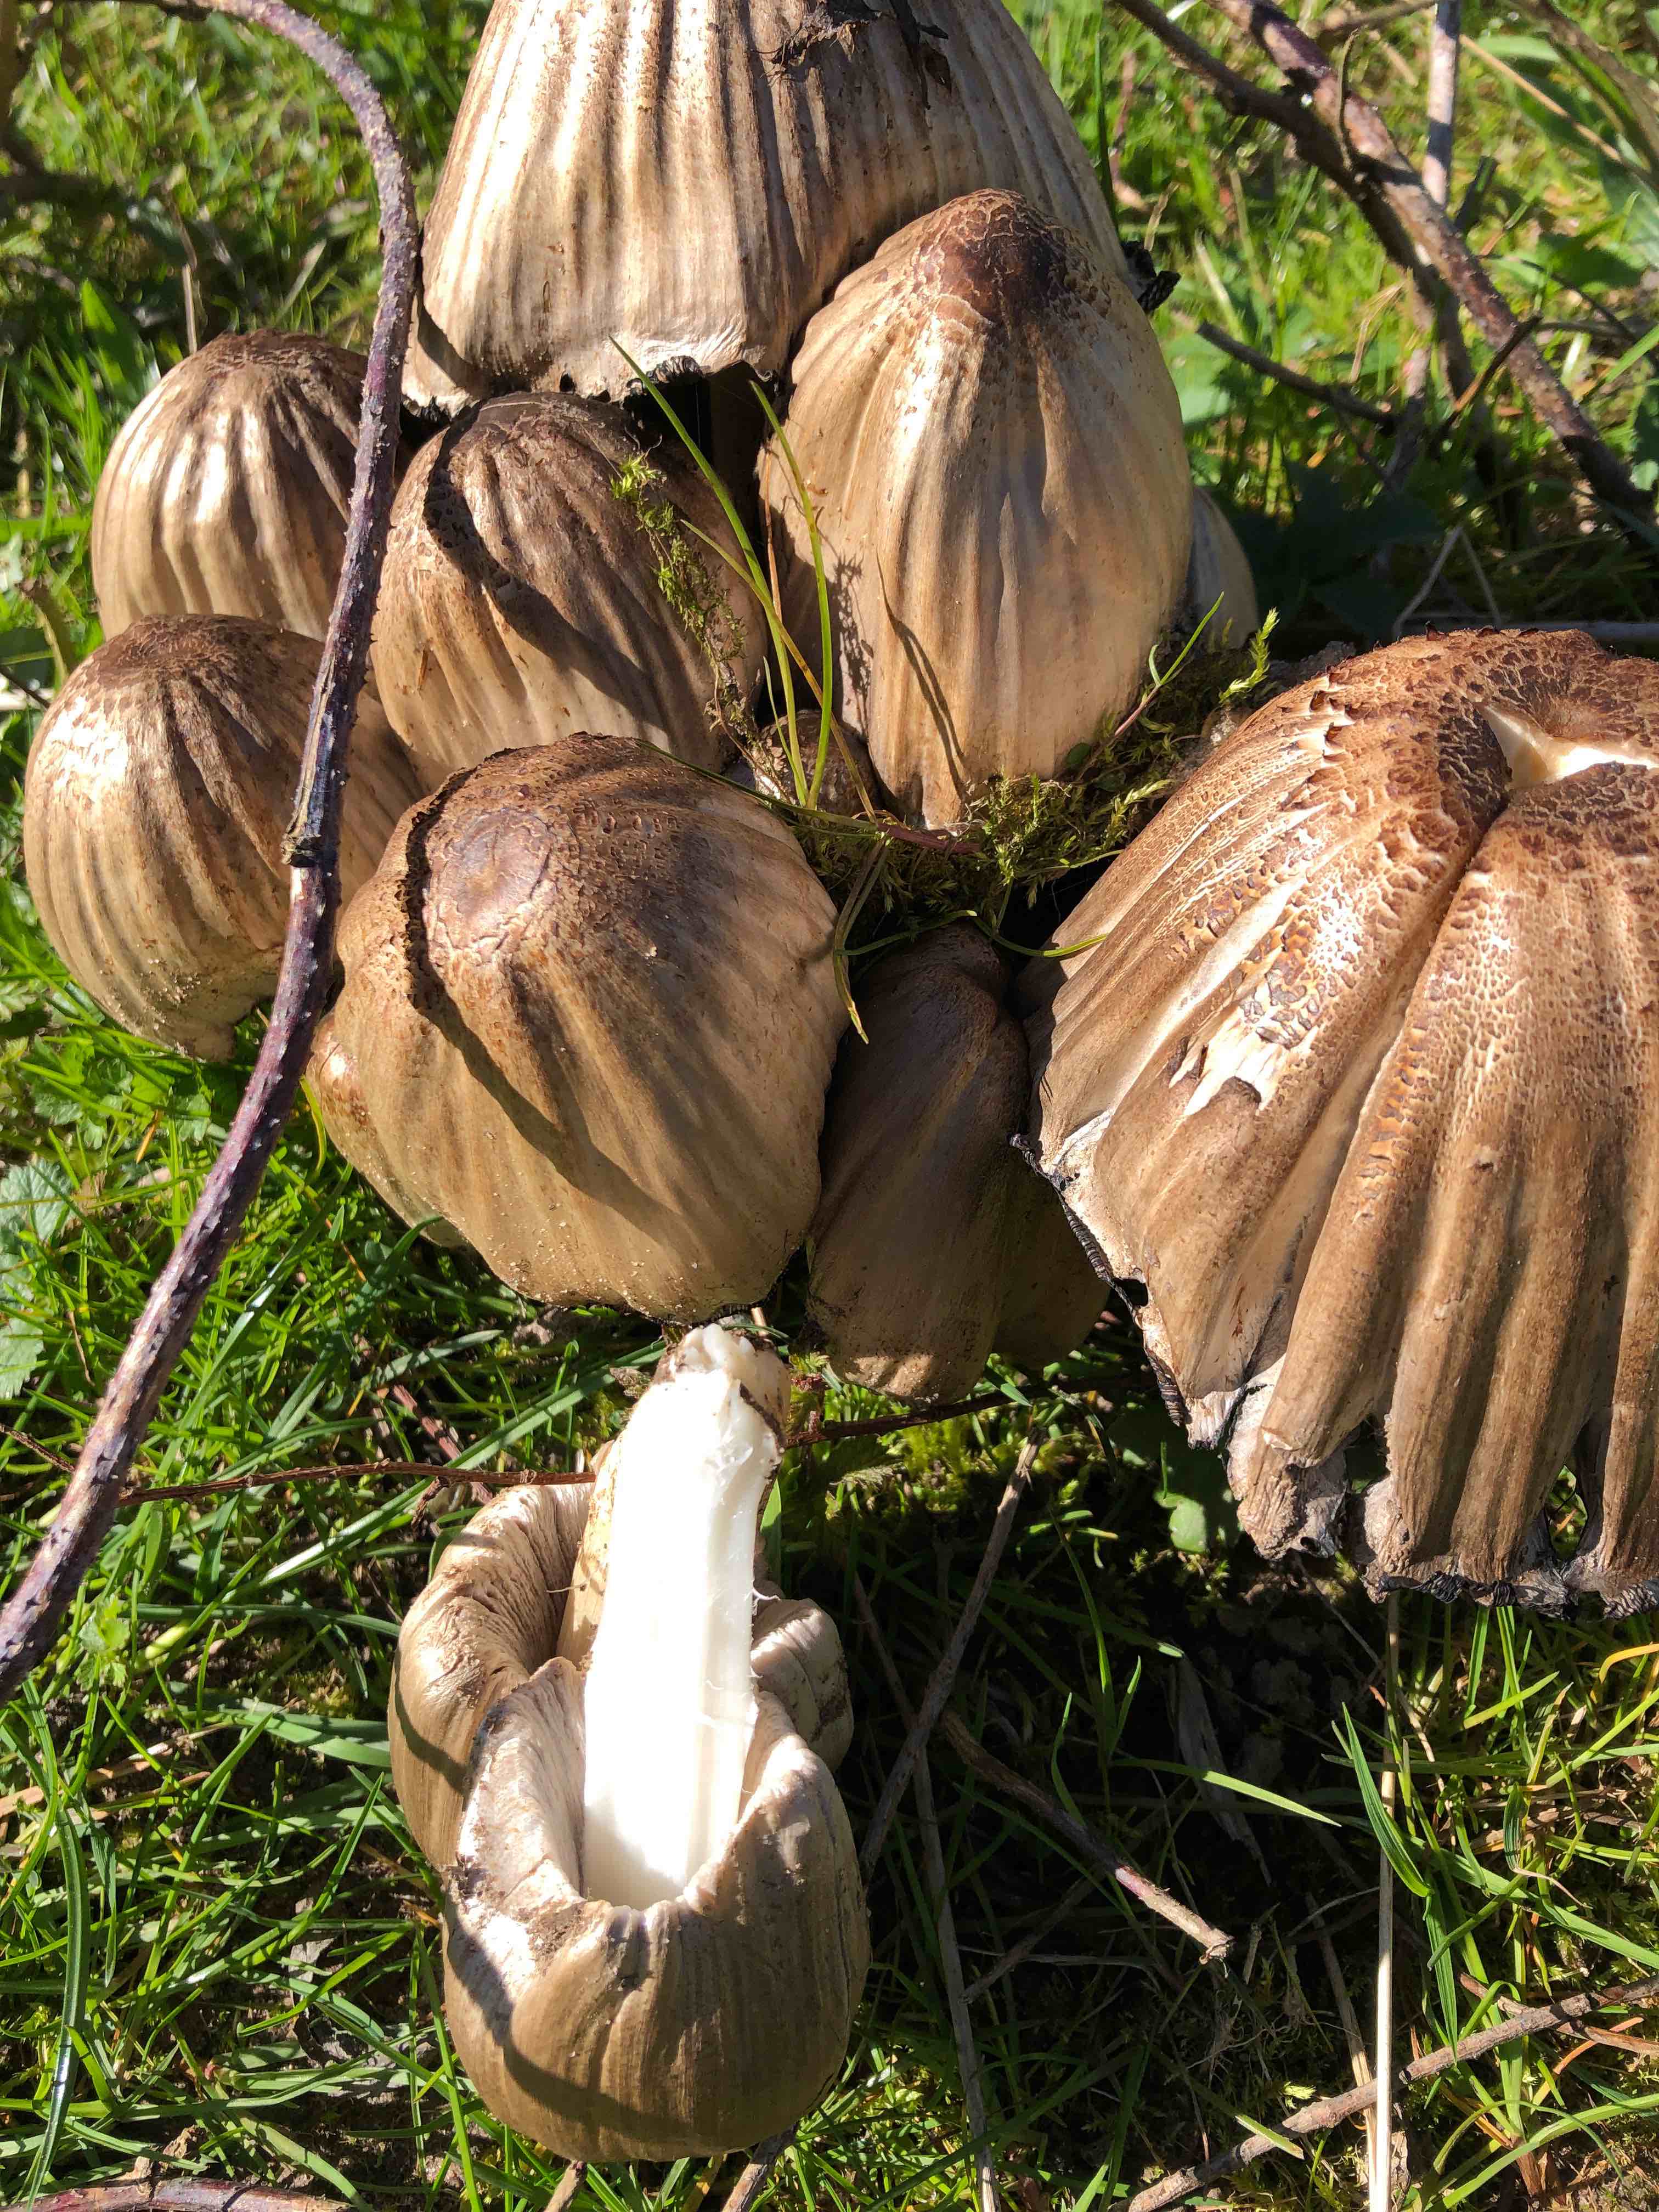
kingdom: Fungi
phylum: Basidiomycota
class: Agaricomycetes
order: Agaricales
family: Psathyrellaceae
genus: Coprinopsis
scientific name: Coprinopsis atramentaria
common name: almindelig blækhat
